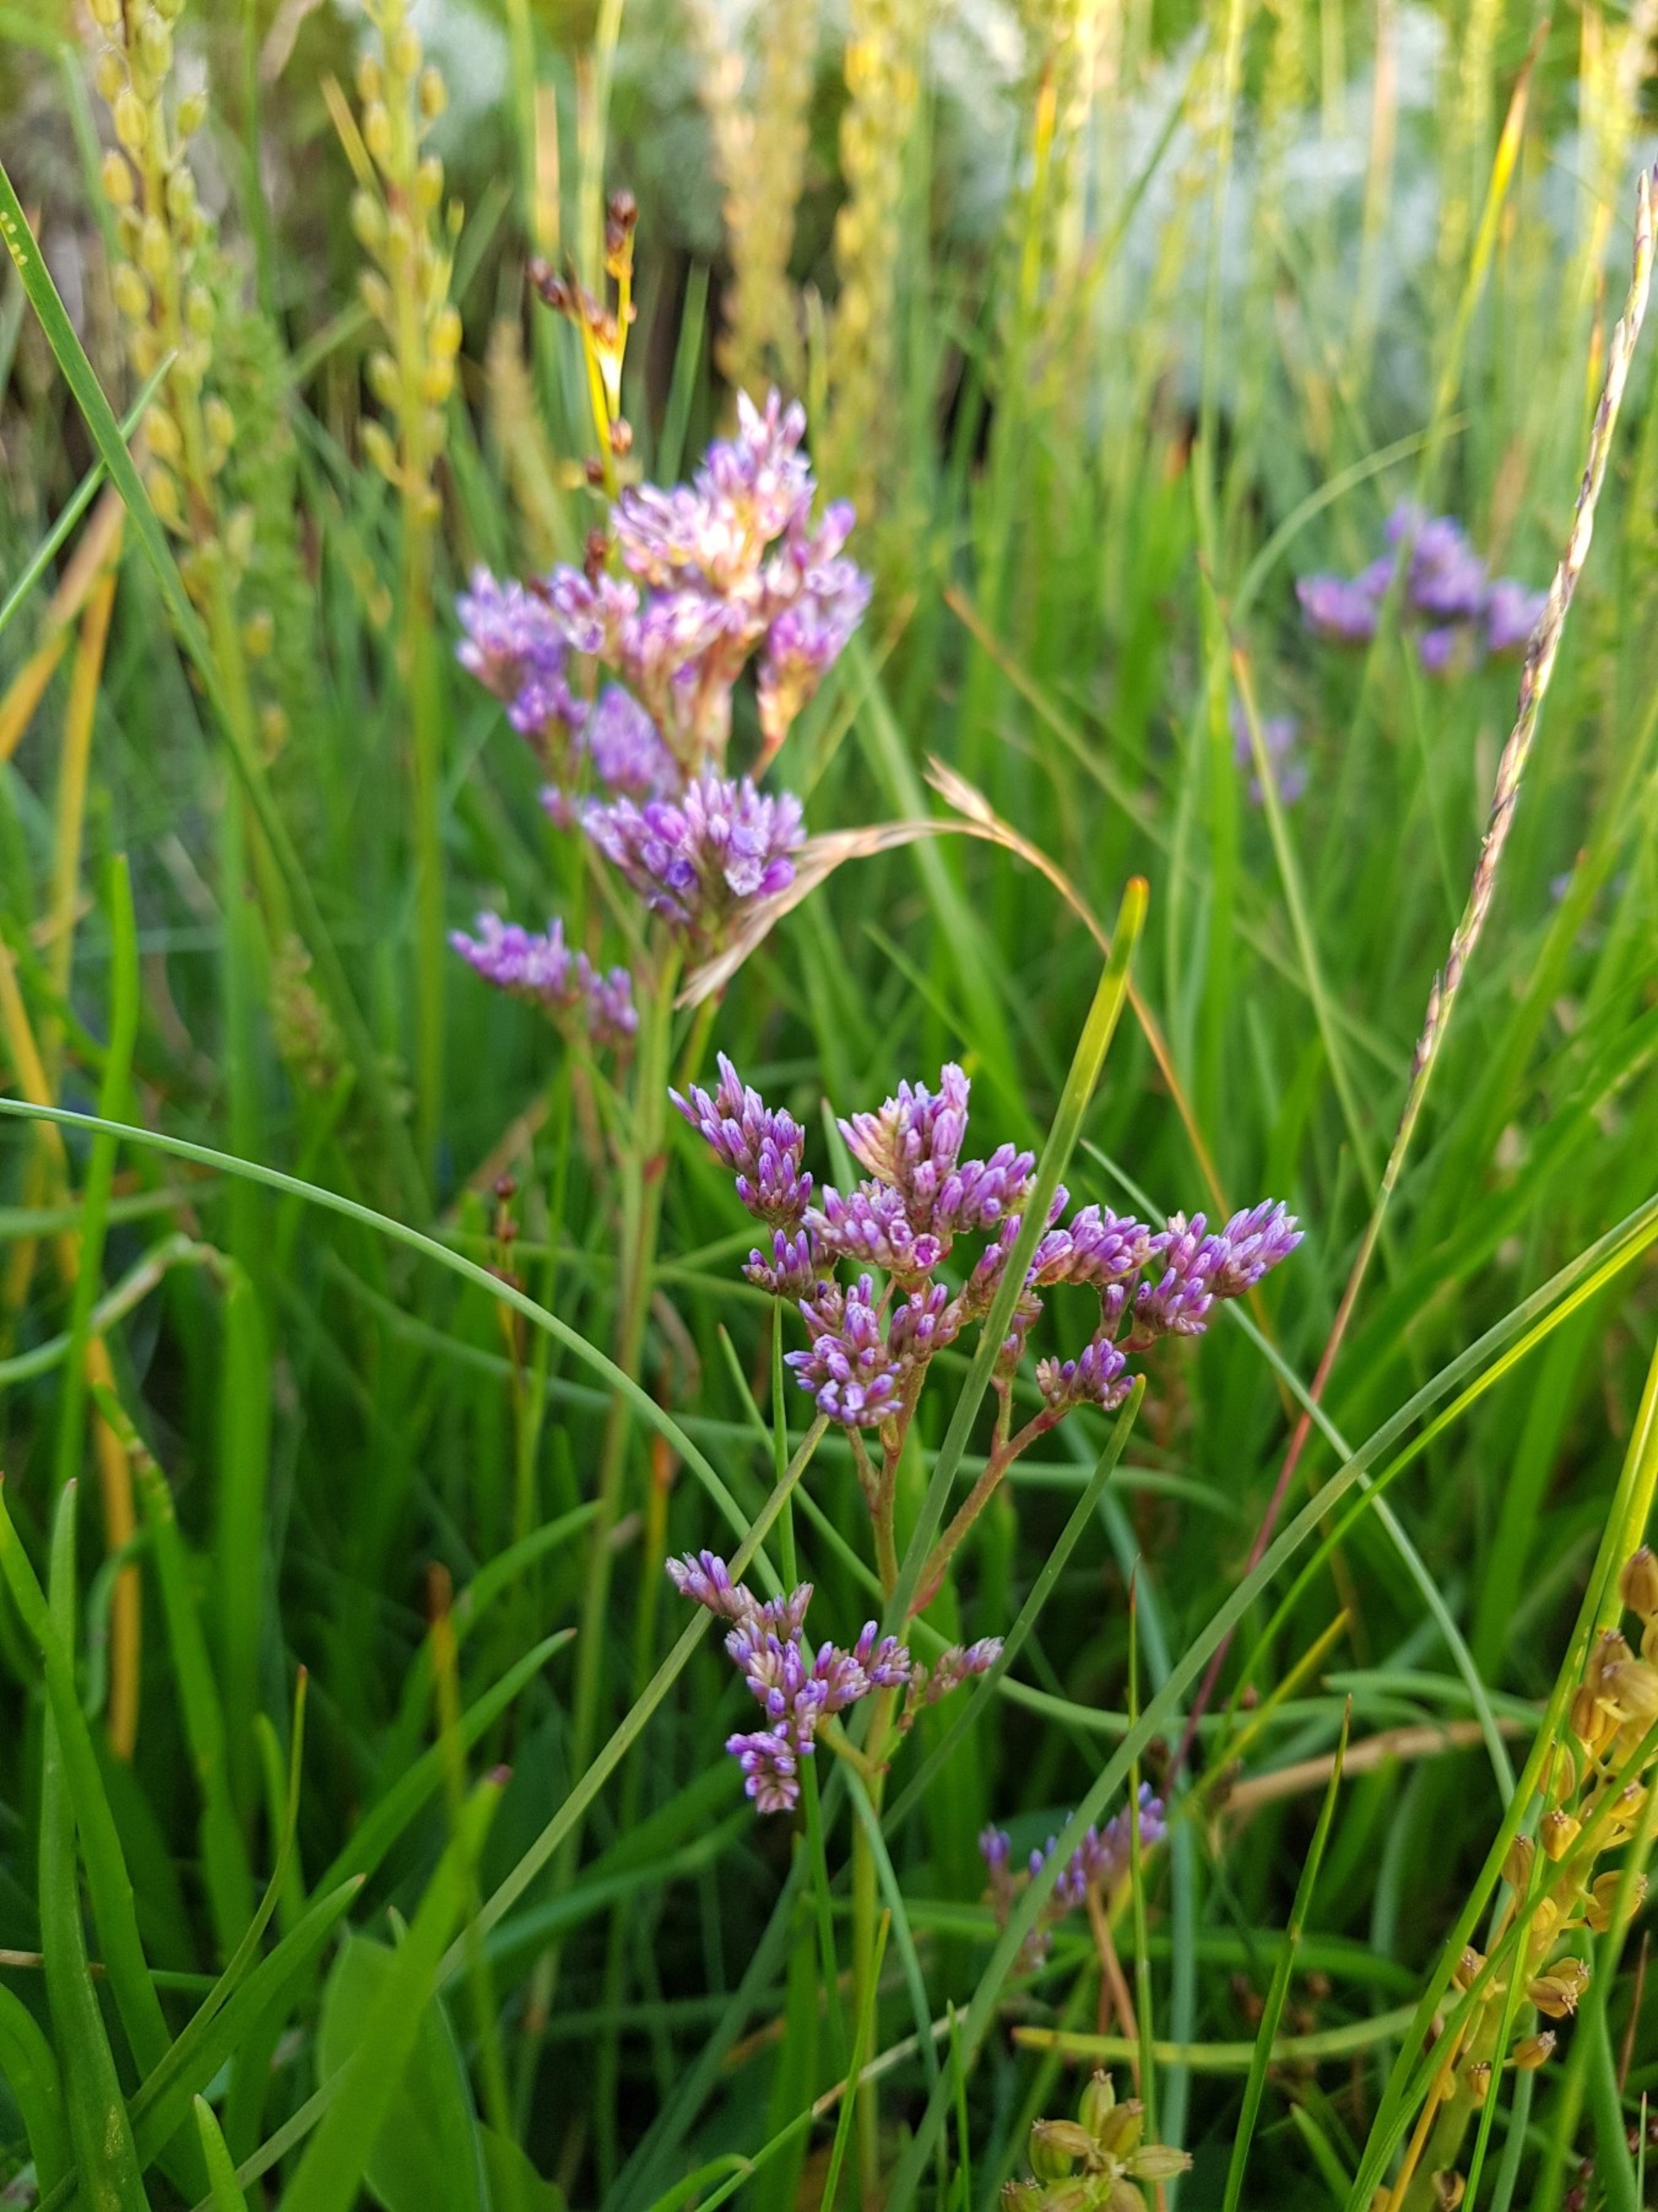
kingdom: Plantae
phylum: Tracheophyta
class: Magnoliopsida
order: Caryophyllales
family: Plumbaginaceae
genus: Limonium
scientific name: Limonium vulgare
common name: Tætblomstret hindebæger
